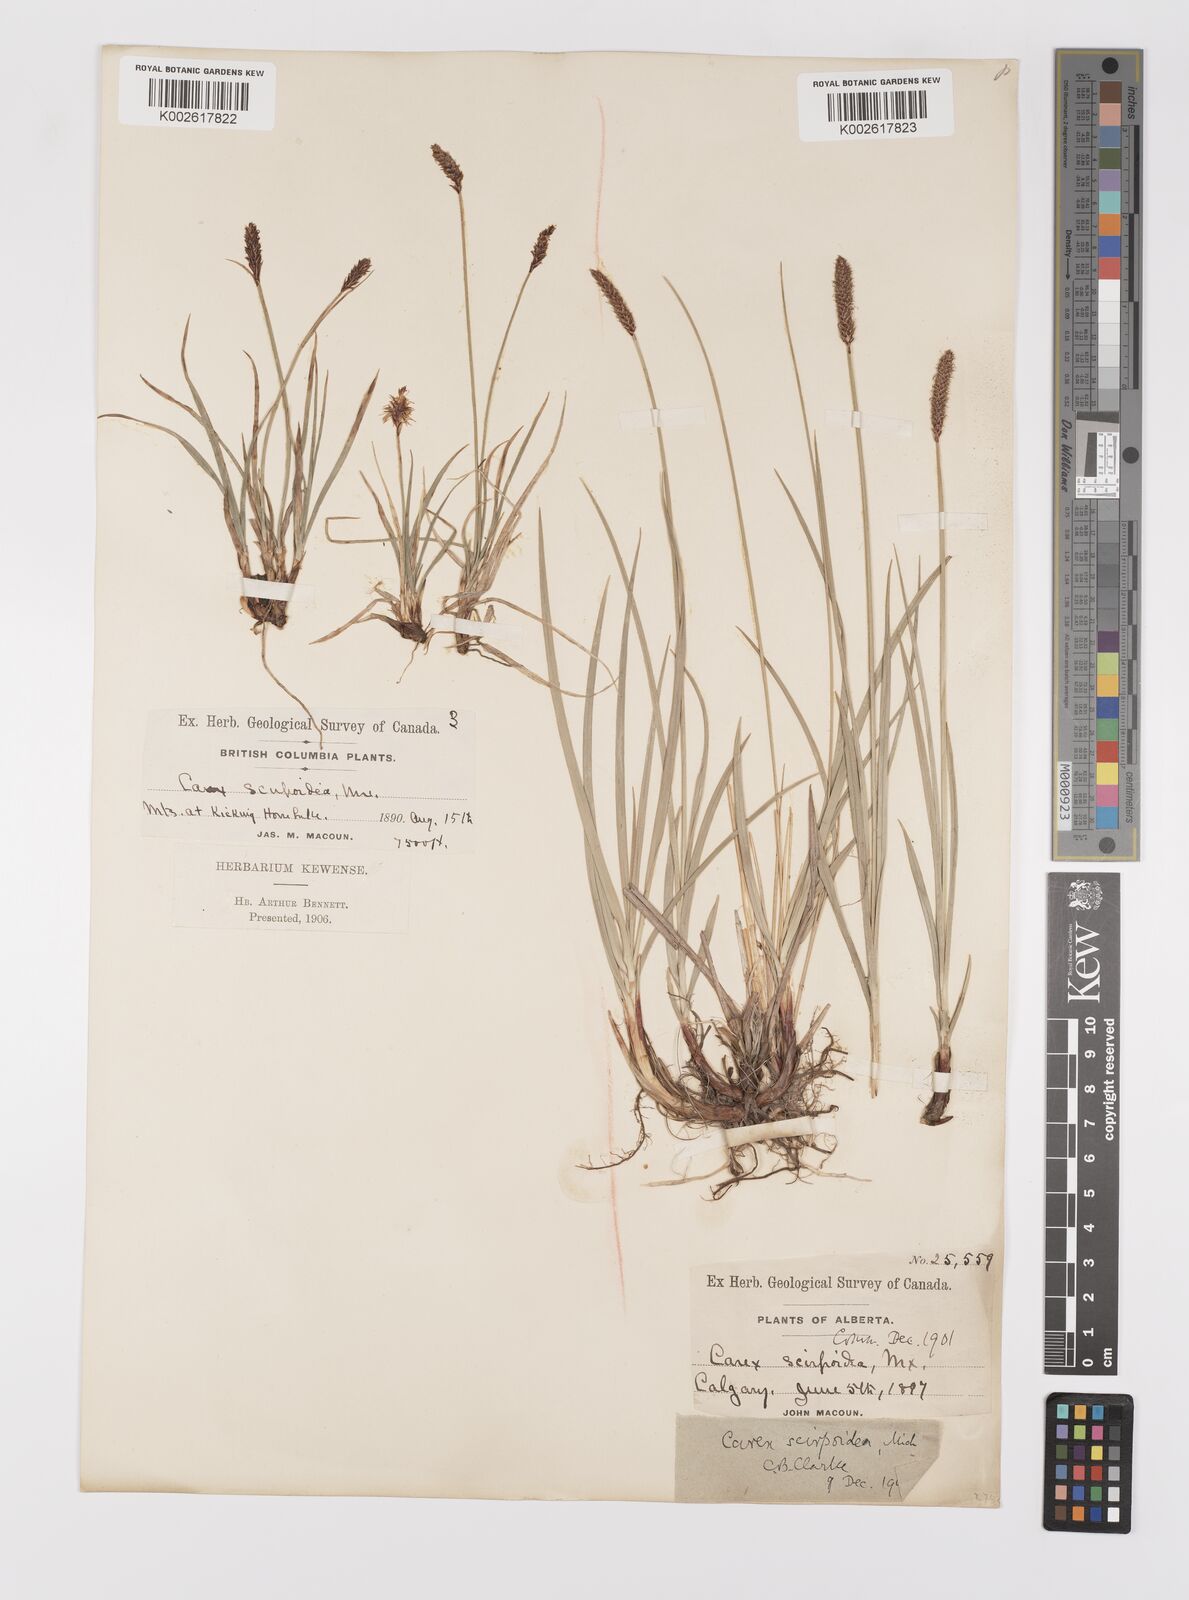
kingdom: Plantae
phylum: Tracheophyta
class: Liliopsida
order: Poales
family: Cyperaceae
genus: Carex
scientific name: Carex scirpoidea
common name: Canada single-spike sedge
